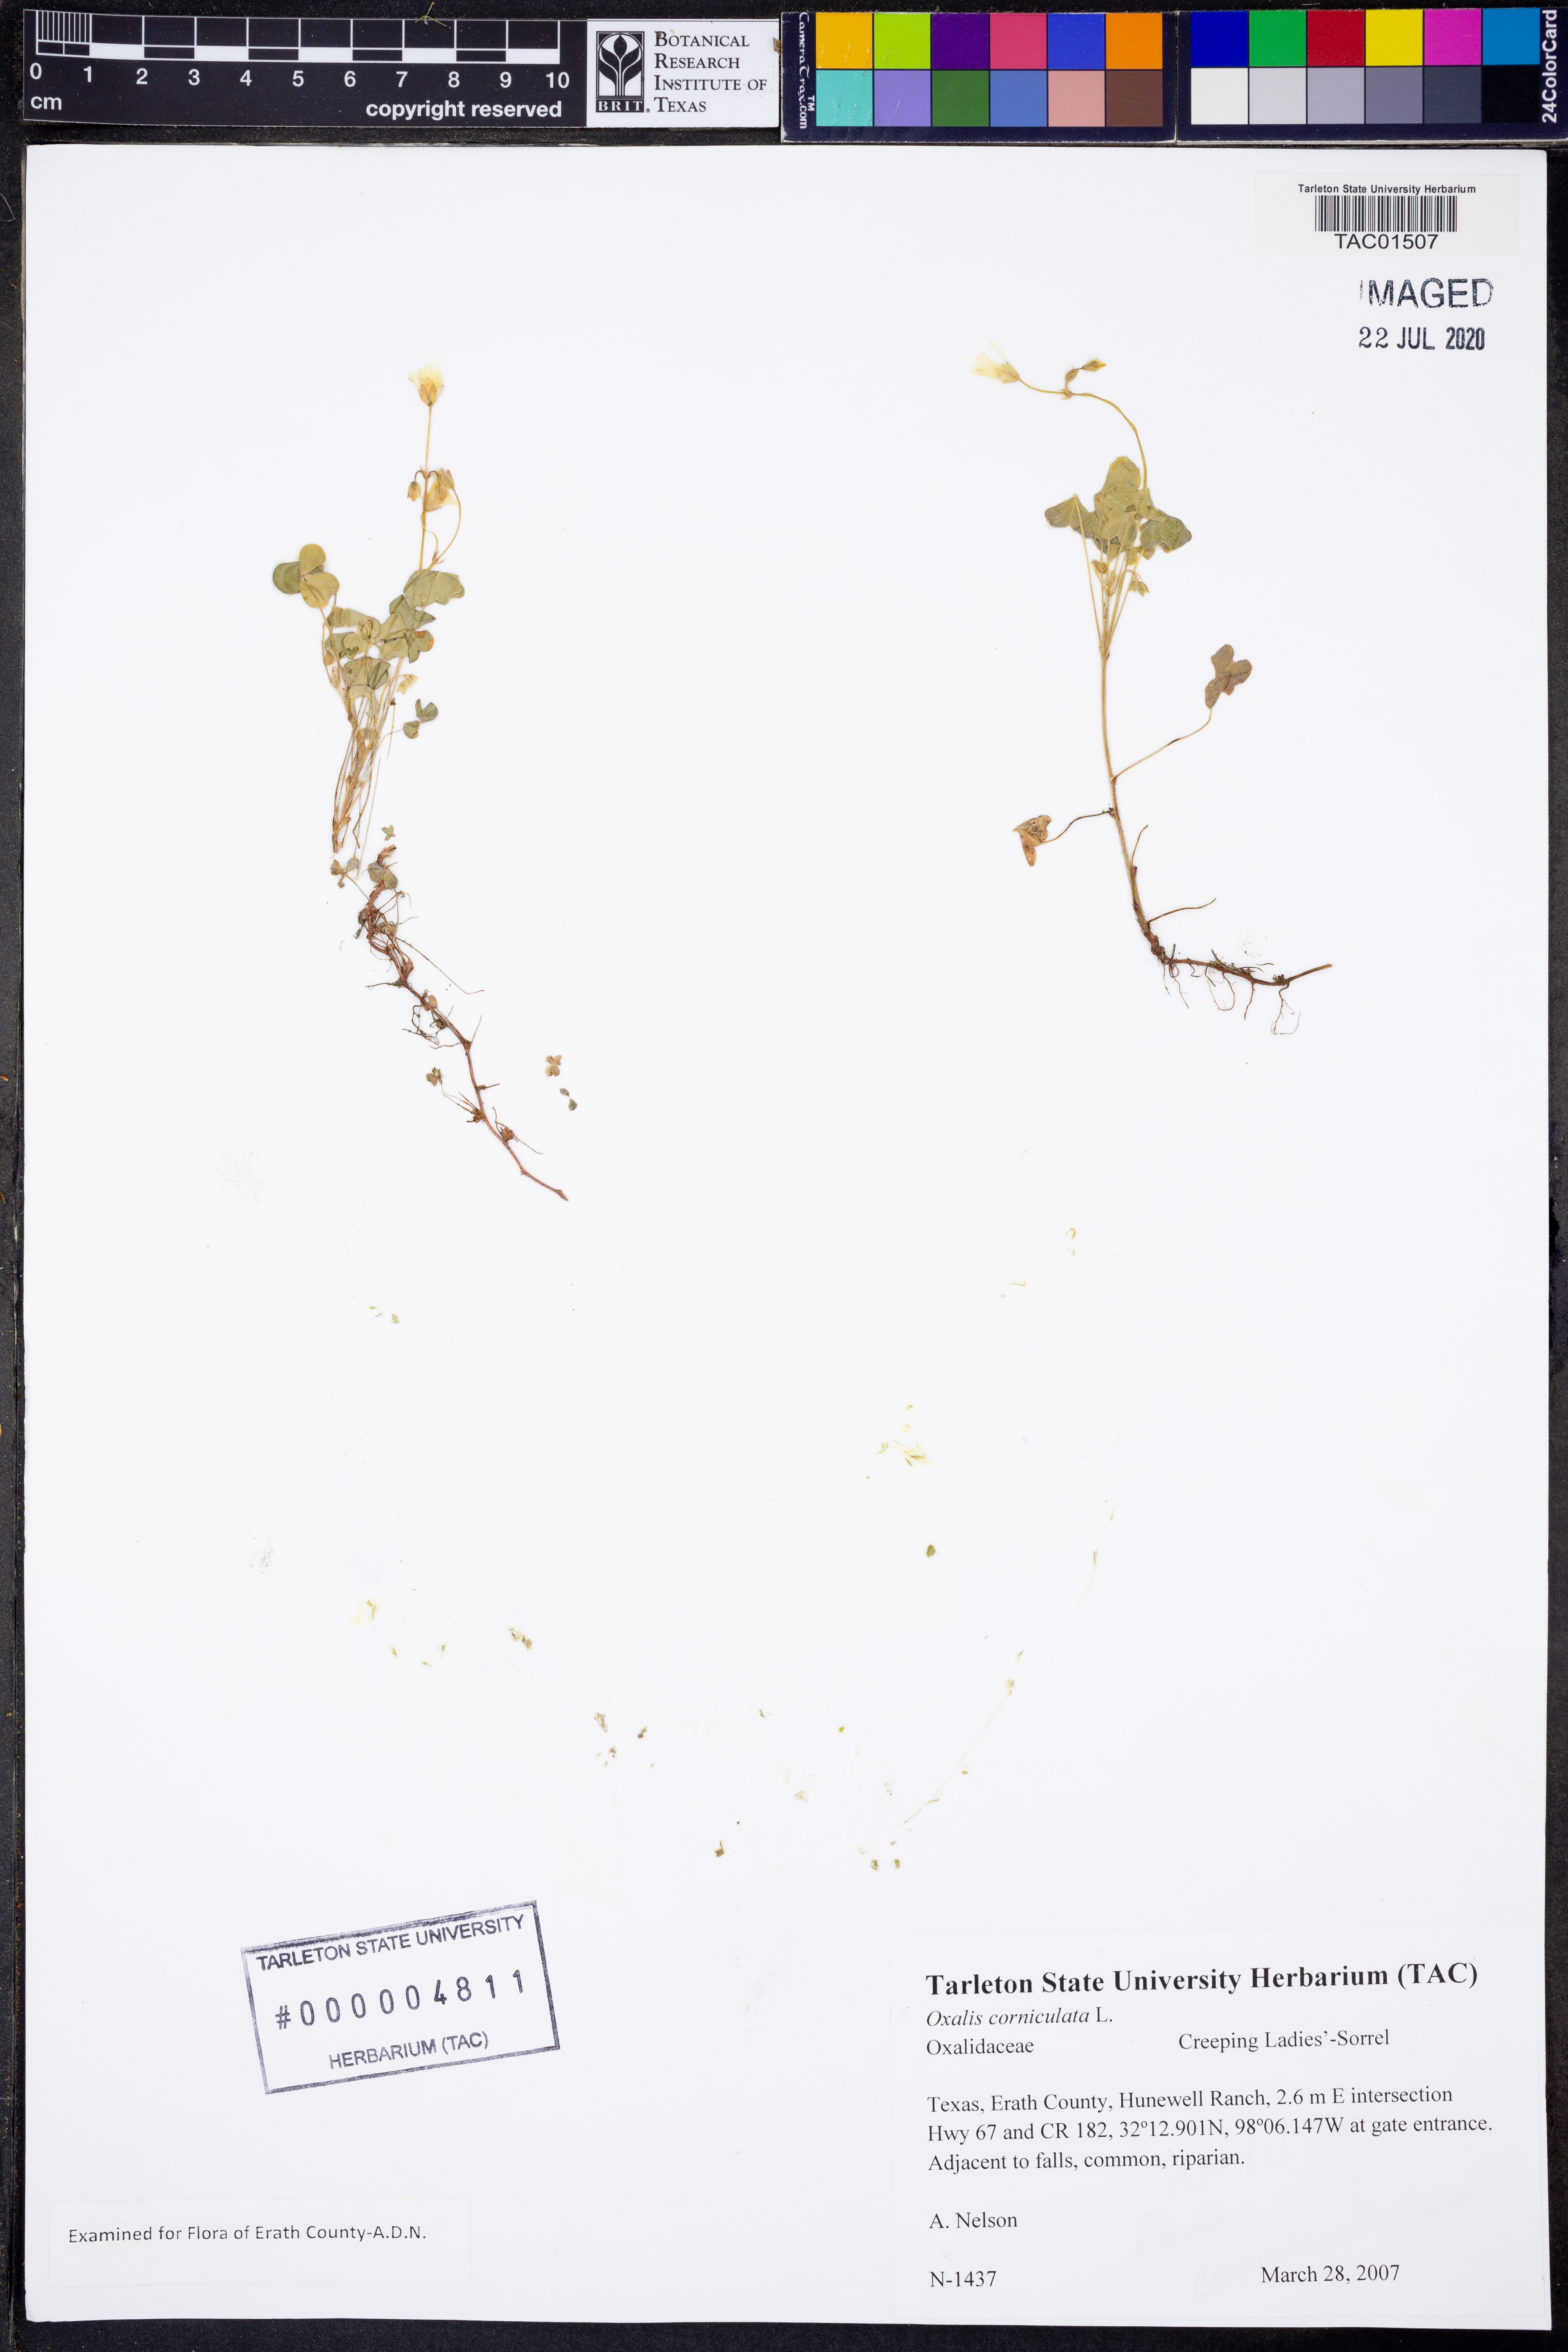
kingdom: Plantae
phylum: Tracheophyta
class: Magnoliopsida
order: Oxalidales
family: Oxalidaceae
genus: Oxalis
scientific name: Oxalis corniculata
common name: Procumbent yellow-sorrel
